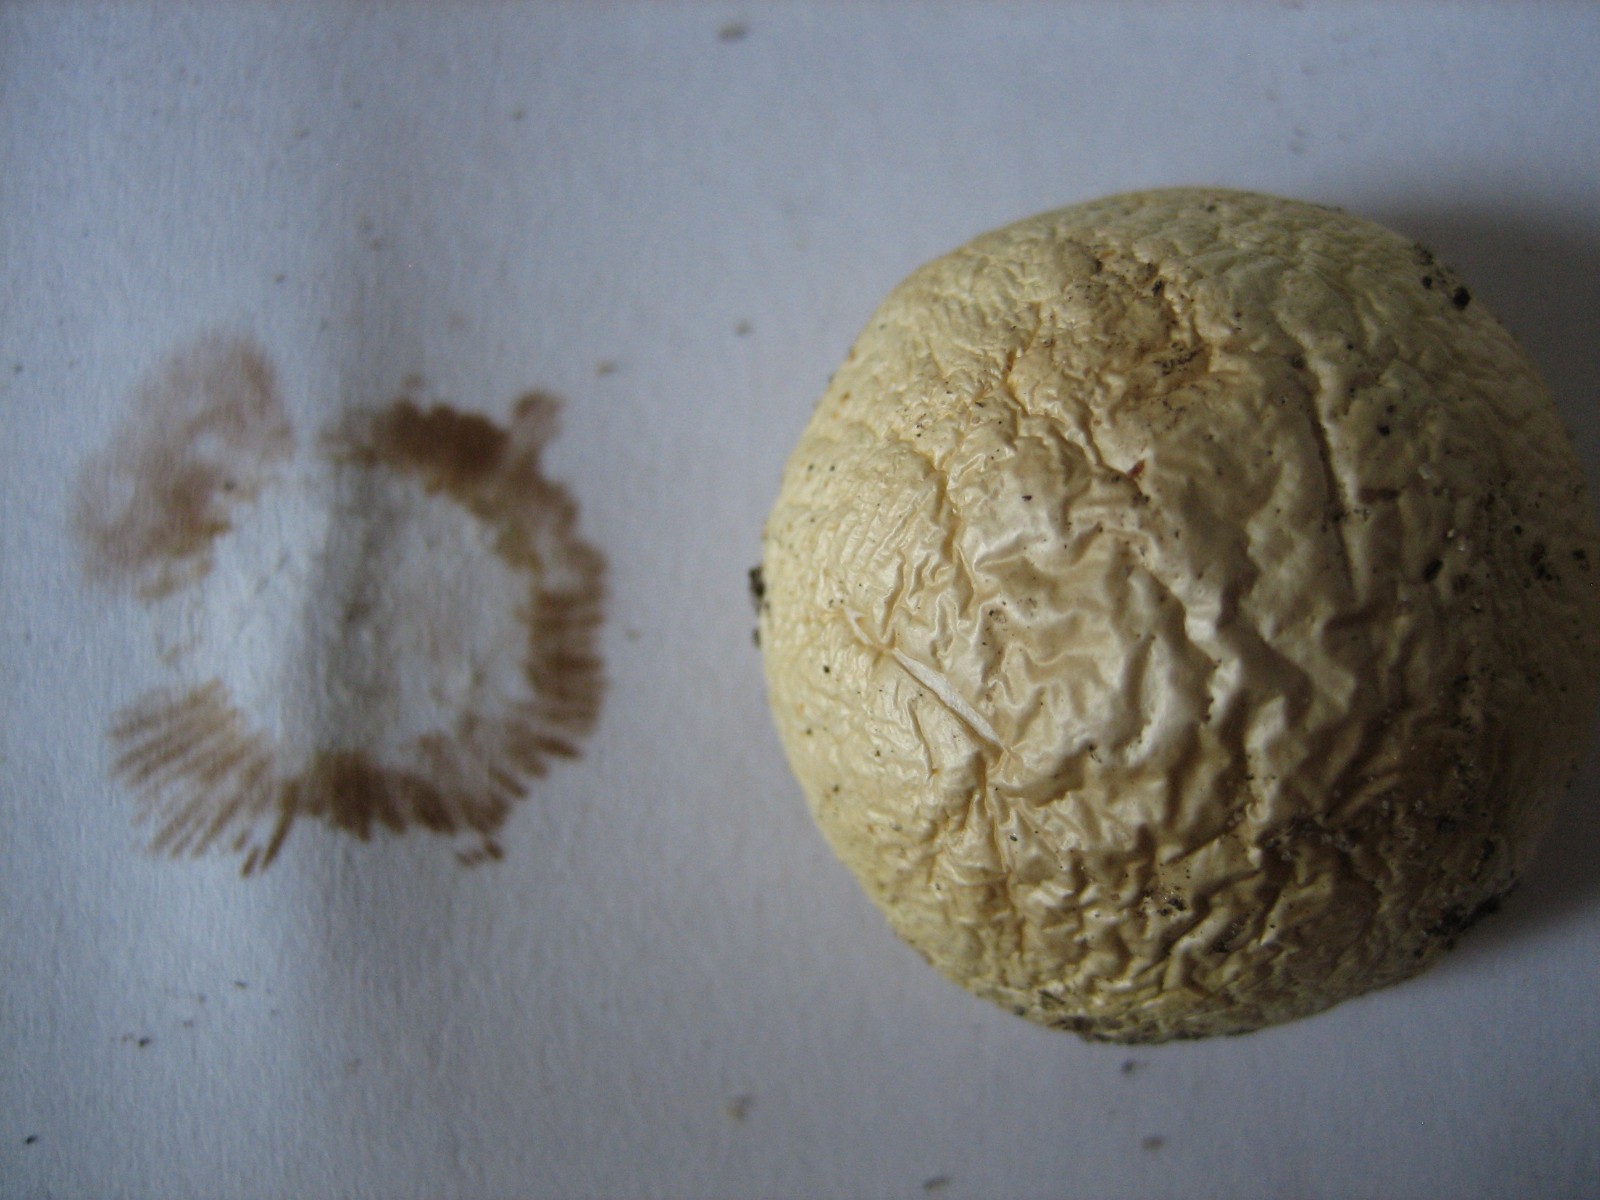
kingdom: Fungi
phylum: Basidiomycota
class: Agaricomycetes
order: Agaricales
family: Strophariaceae
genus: Agrocybe
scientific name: Agrocybe dura
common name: fastkødet agerhat
